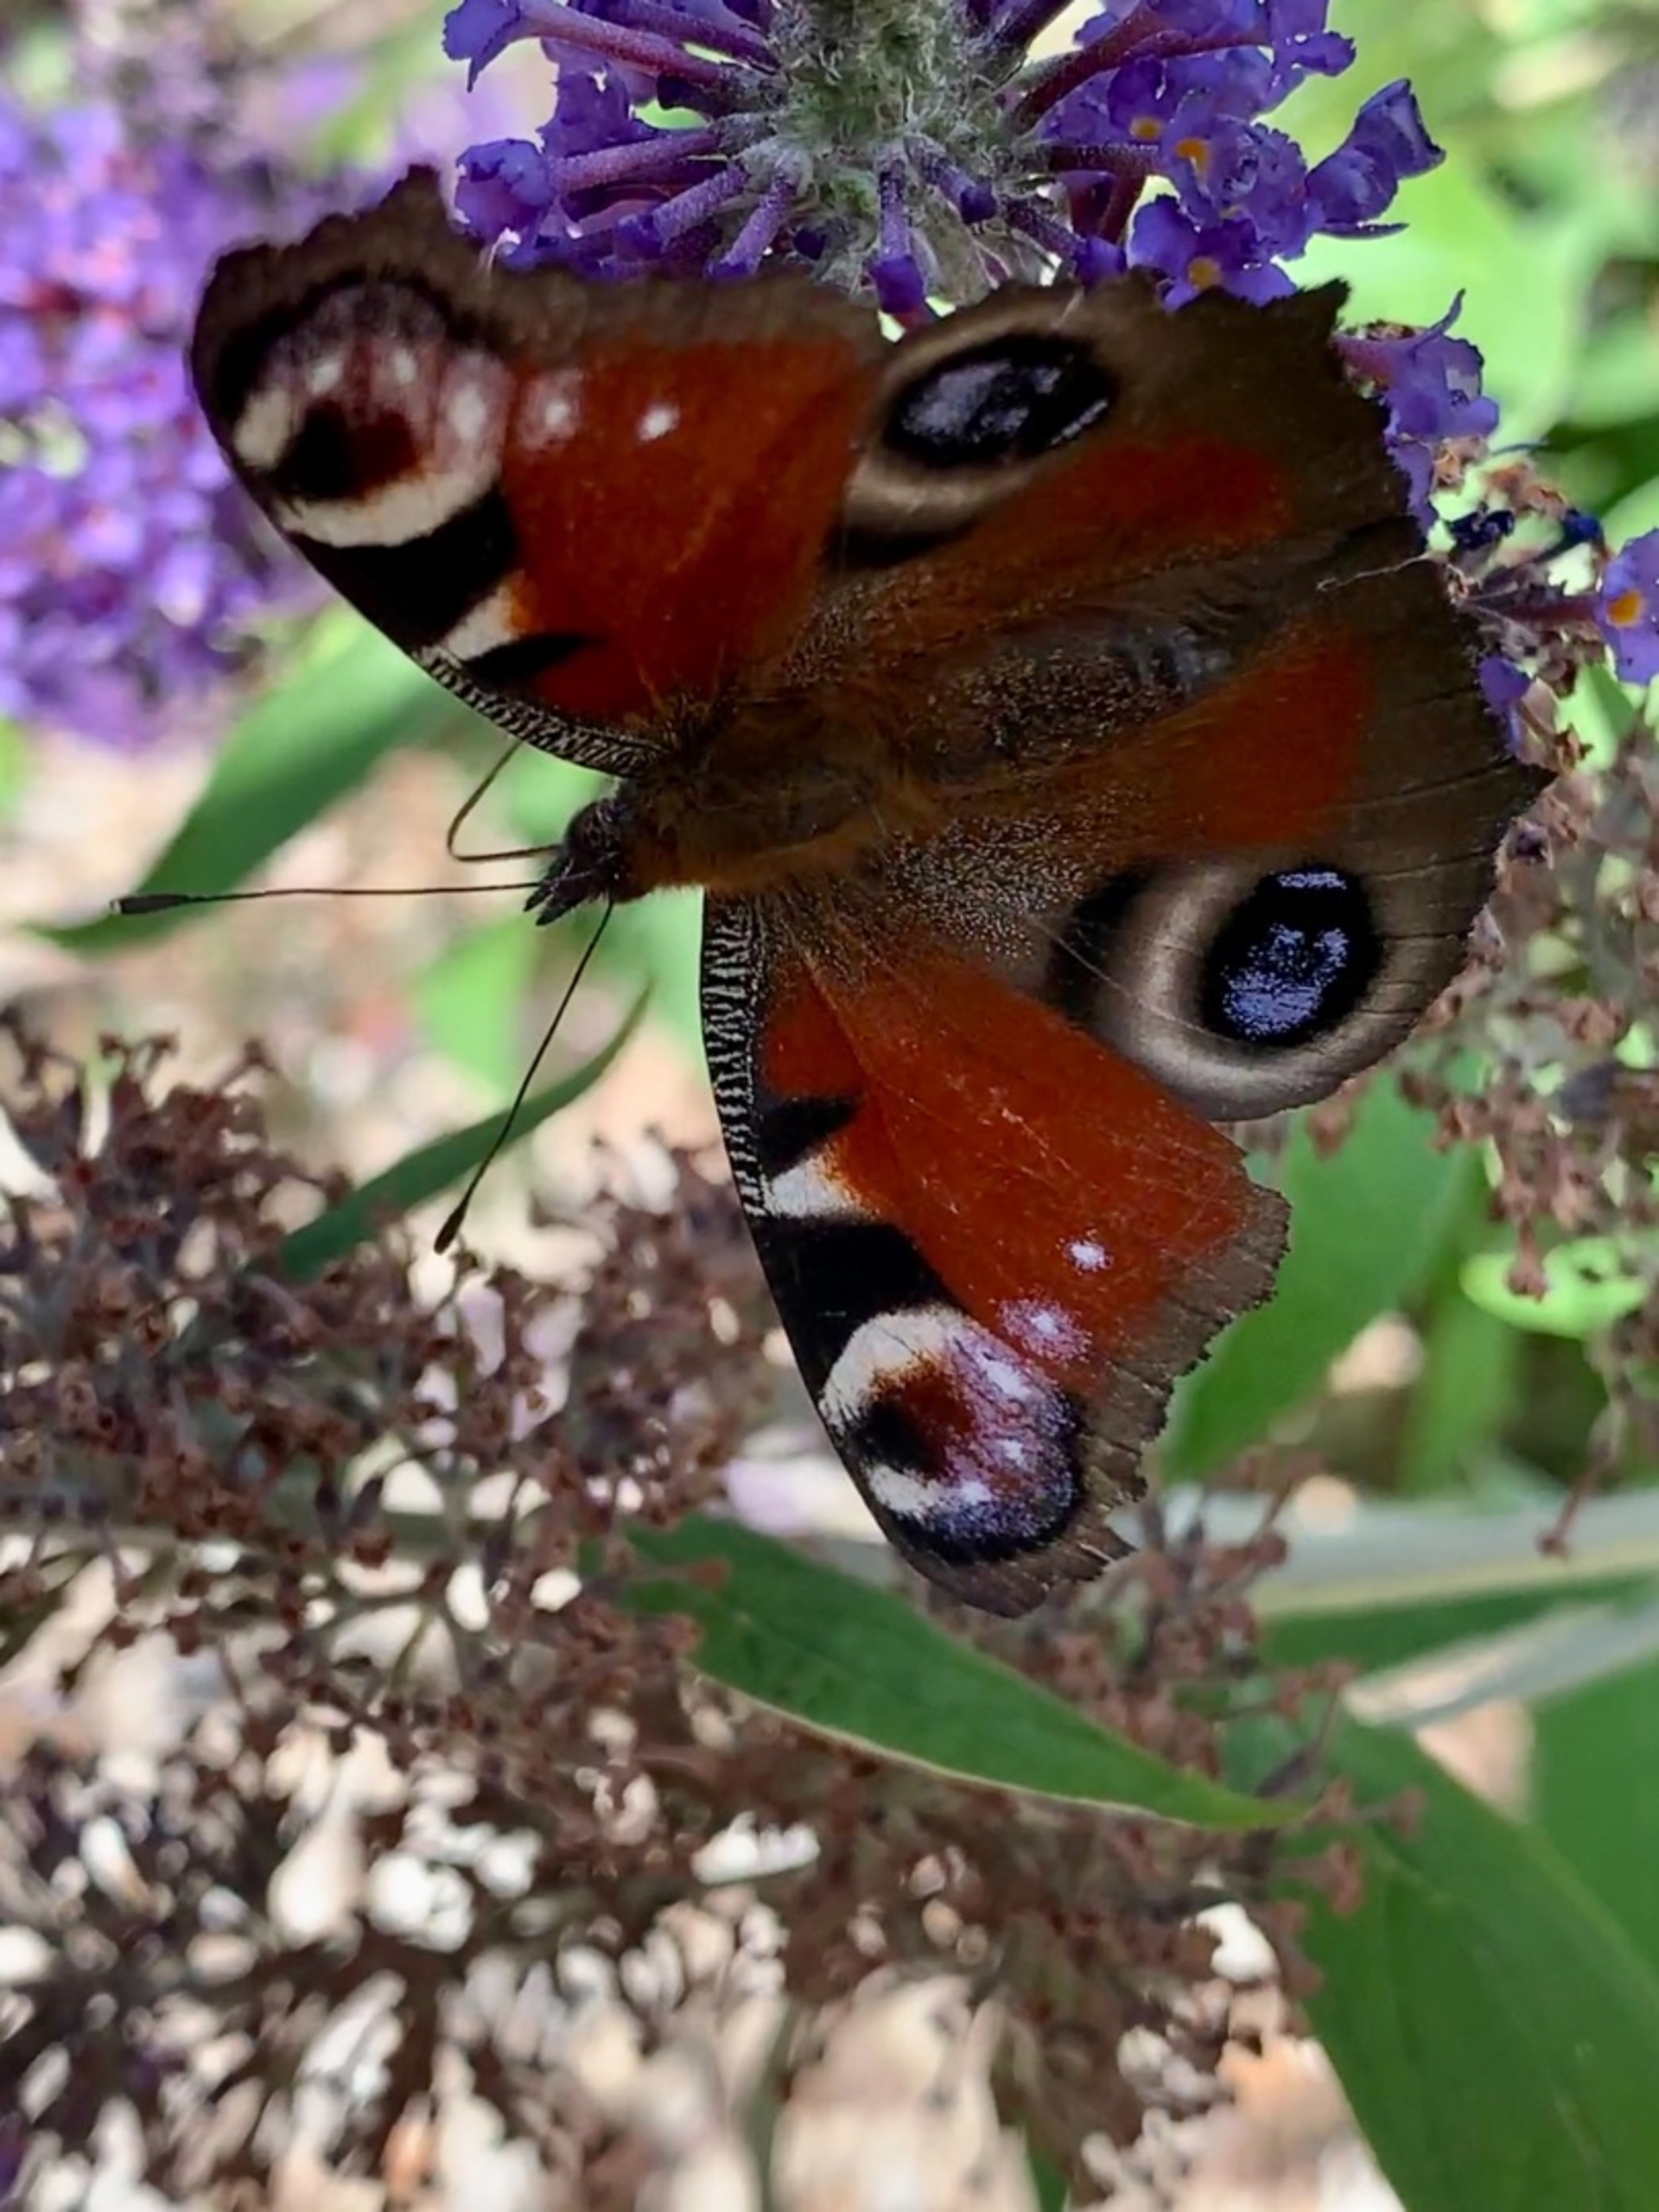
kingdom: Animalia
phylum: Arthropoda
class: Insecta
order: Lepidoptera
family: Nymphalidae
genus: Aglais
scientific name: Aglais io
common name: Dagpåfugleøje
